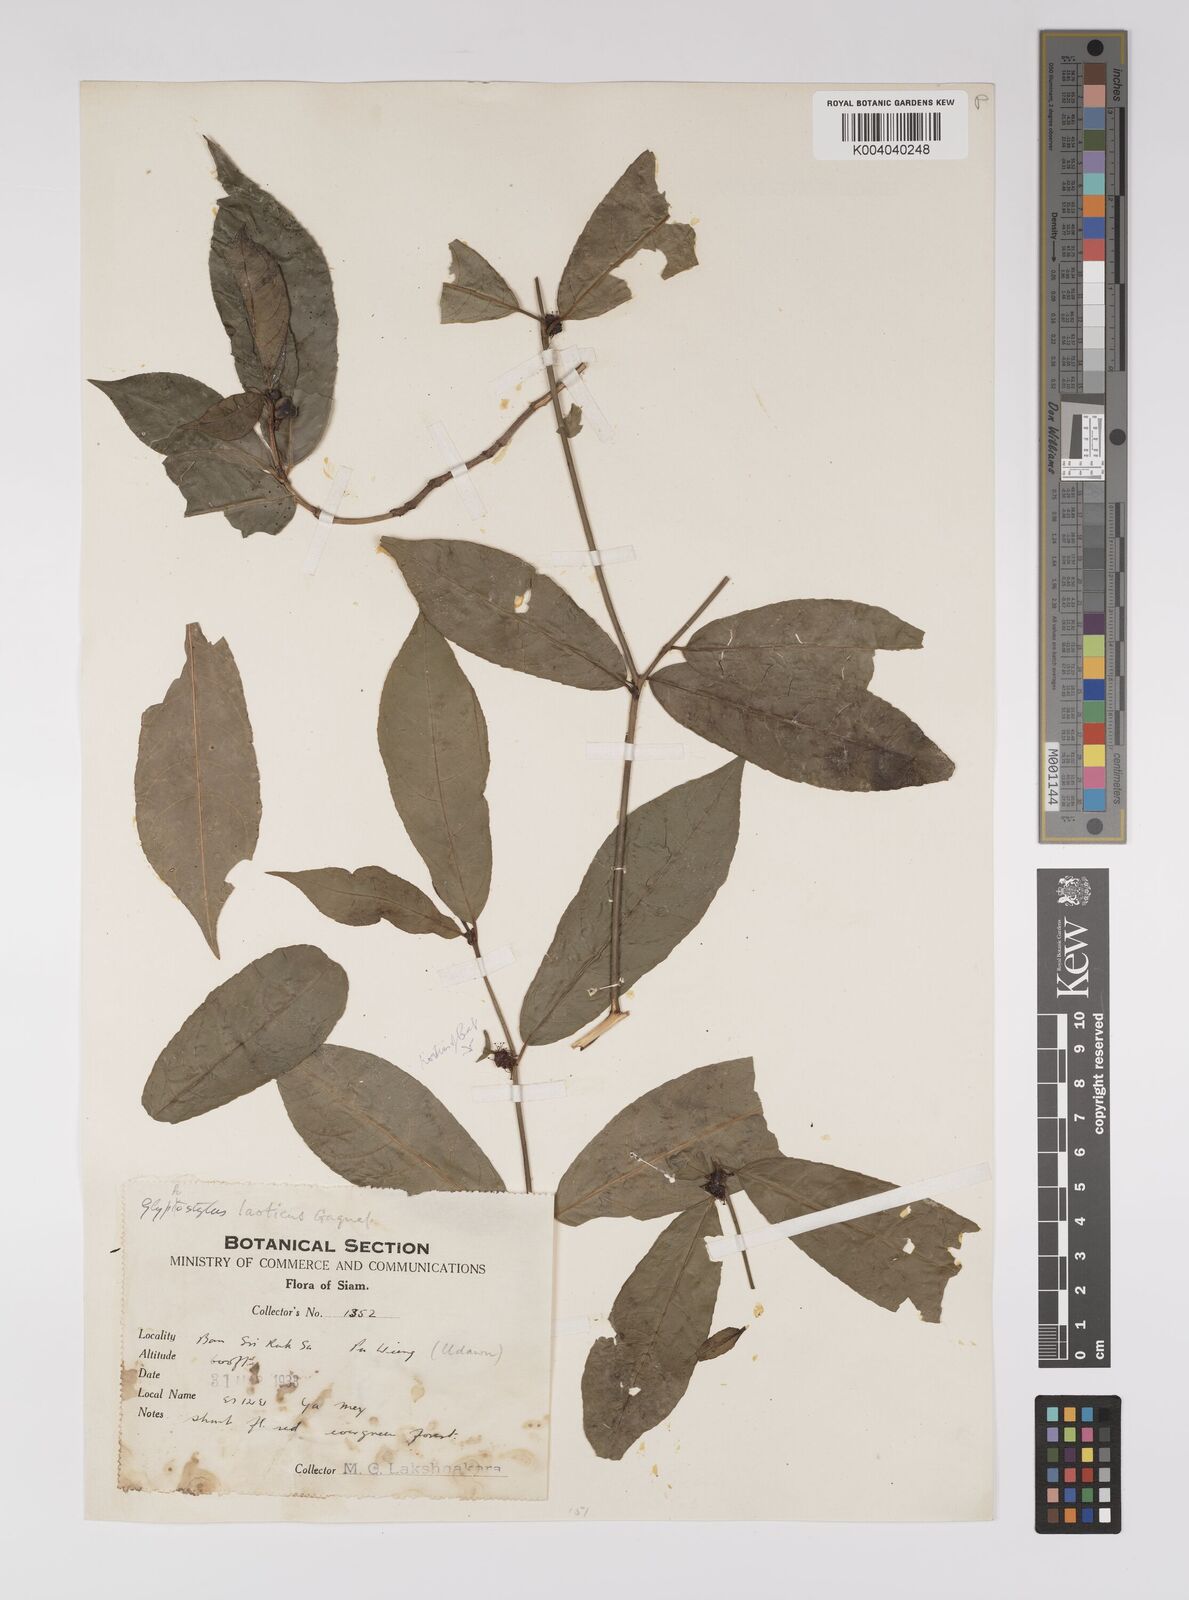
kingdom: Plantae
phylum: Tracheophyta
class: Magnoliopsida
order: Malpighiales
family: Euphorbiaceae
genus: Excoecaria
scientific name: Excoecaria laotica
